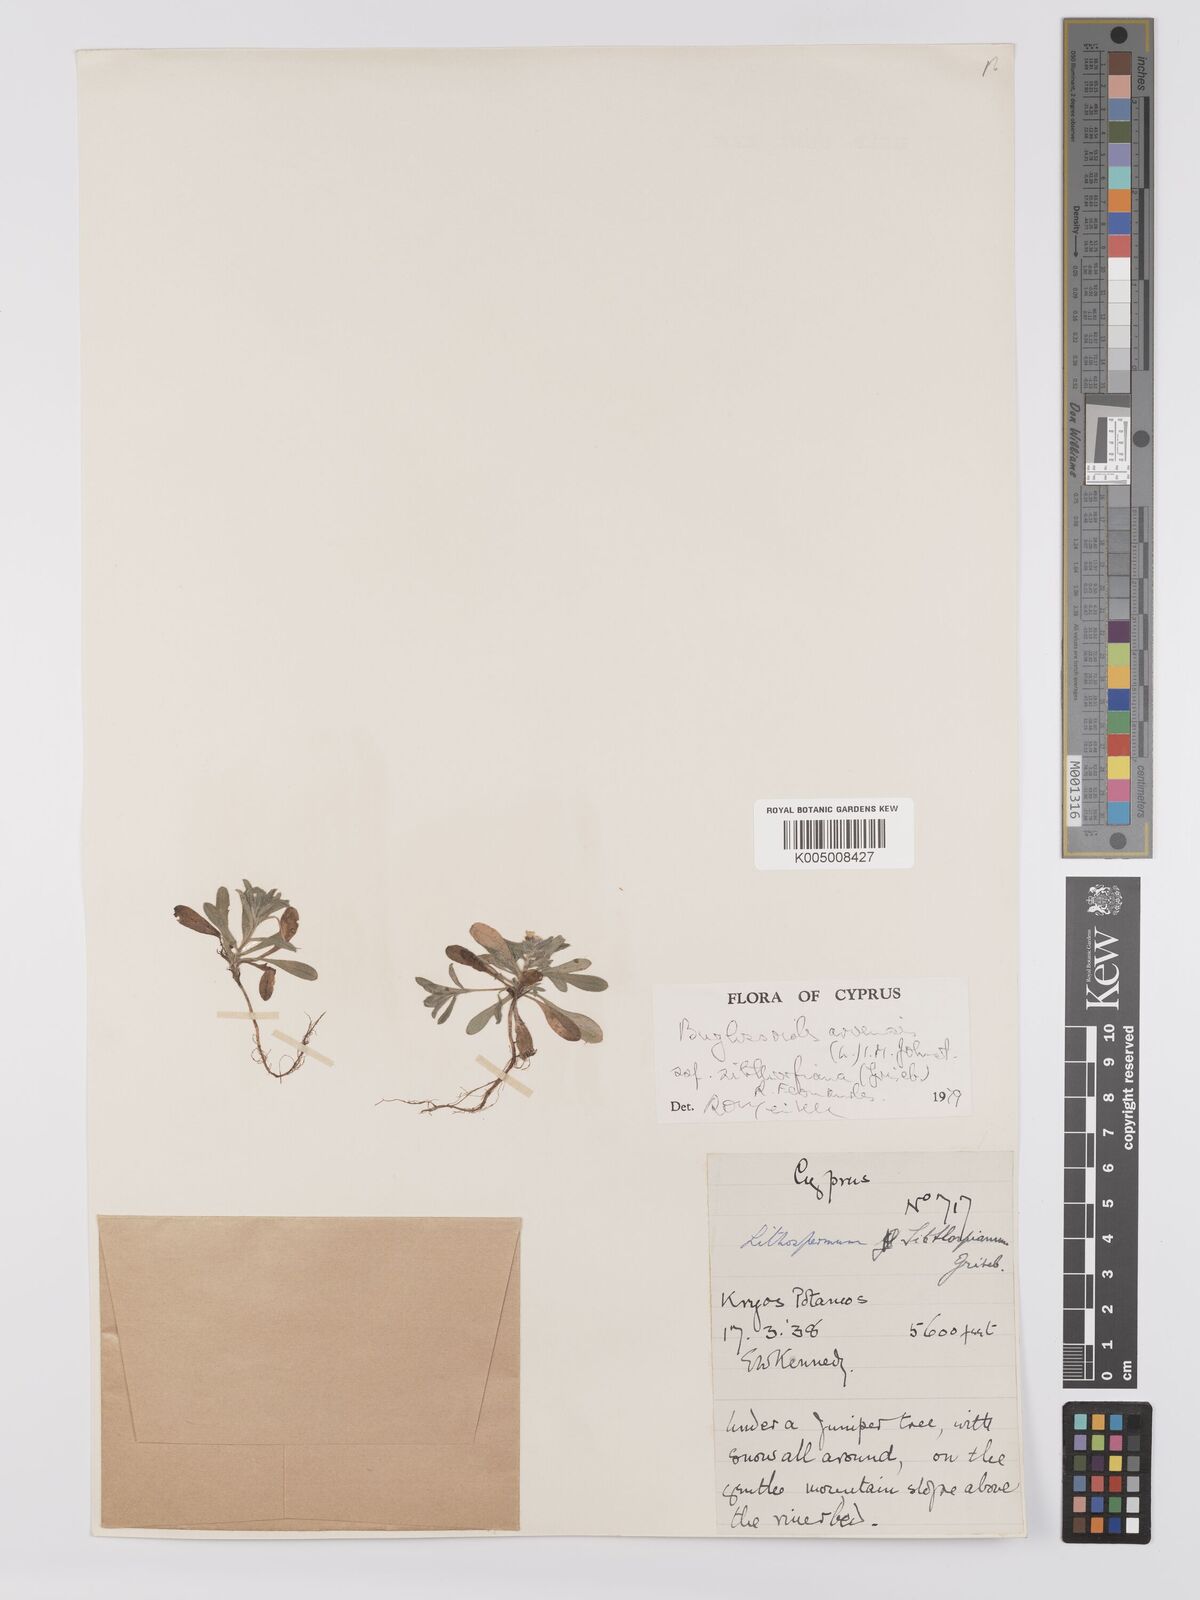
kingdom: Plantae
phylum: Tracheophyta
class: Magnoliopsida
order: Boraginales
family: Boraginaceae
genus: Buglossoides
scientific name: Buglossoides
